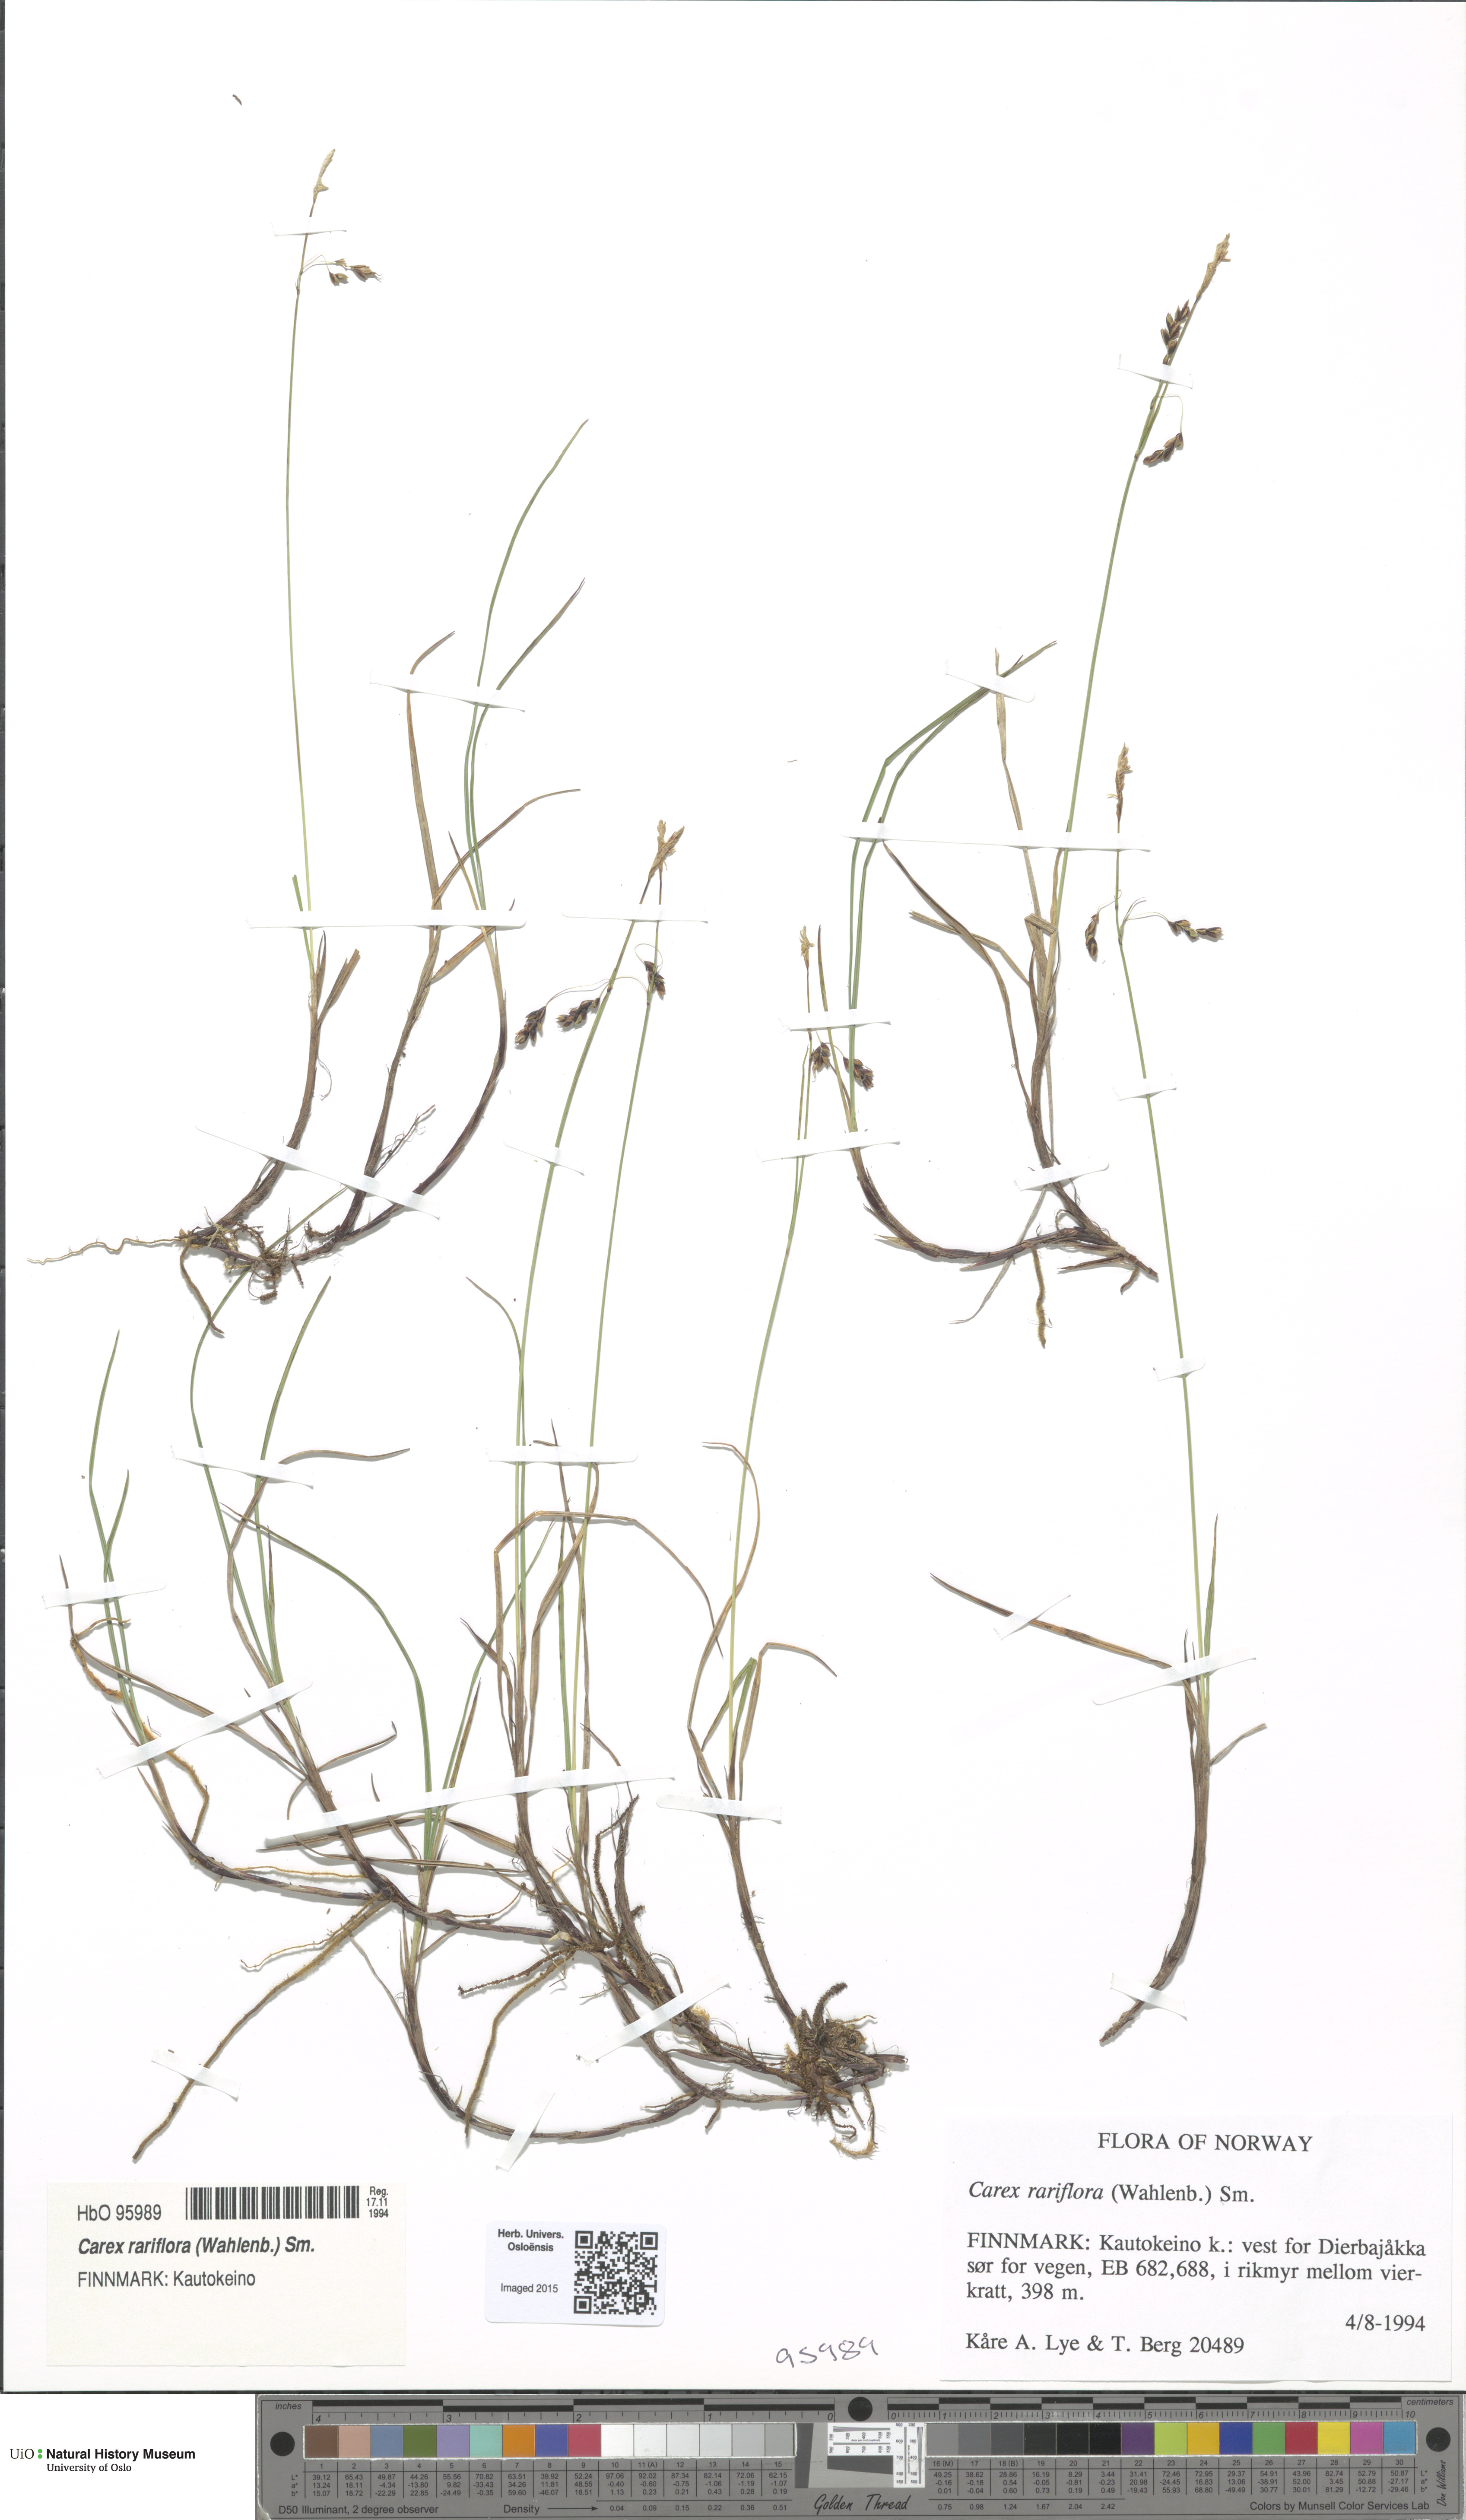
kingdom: Plantae
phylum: Tracheophyta
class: Liliopsida
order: Poales
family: Cyperaceae
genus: Carex
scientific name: Carex rariflora
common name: Loose-flowered alpine sedge
